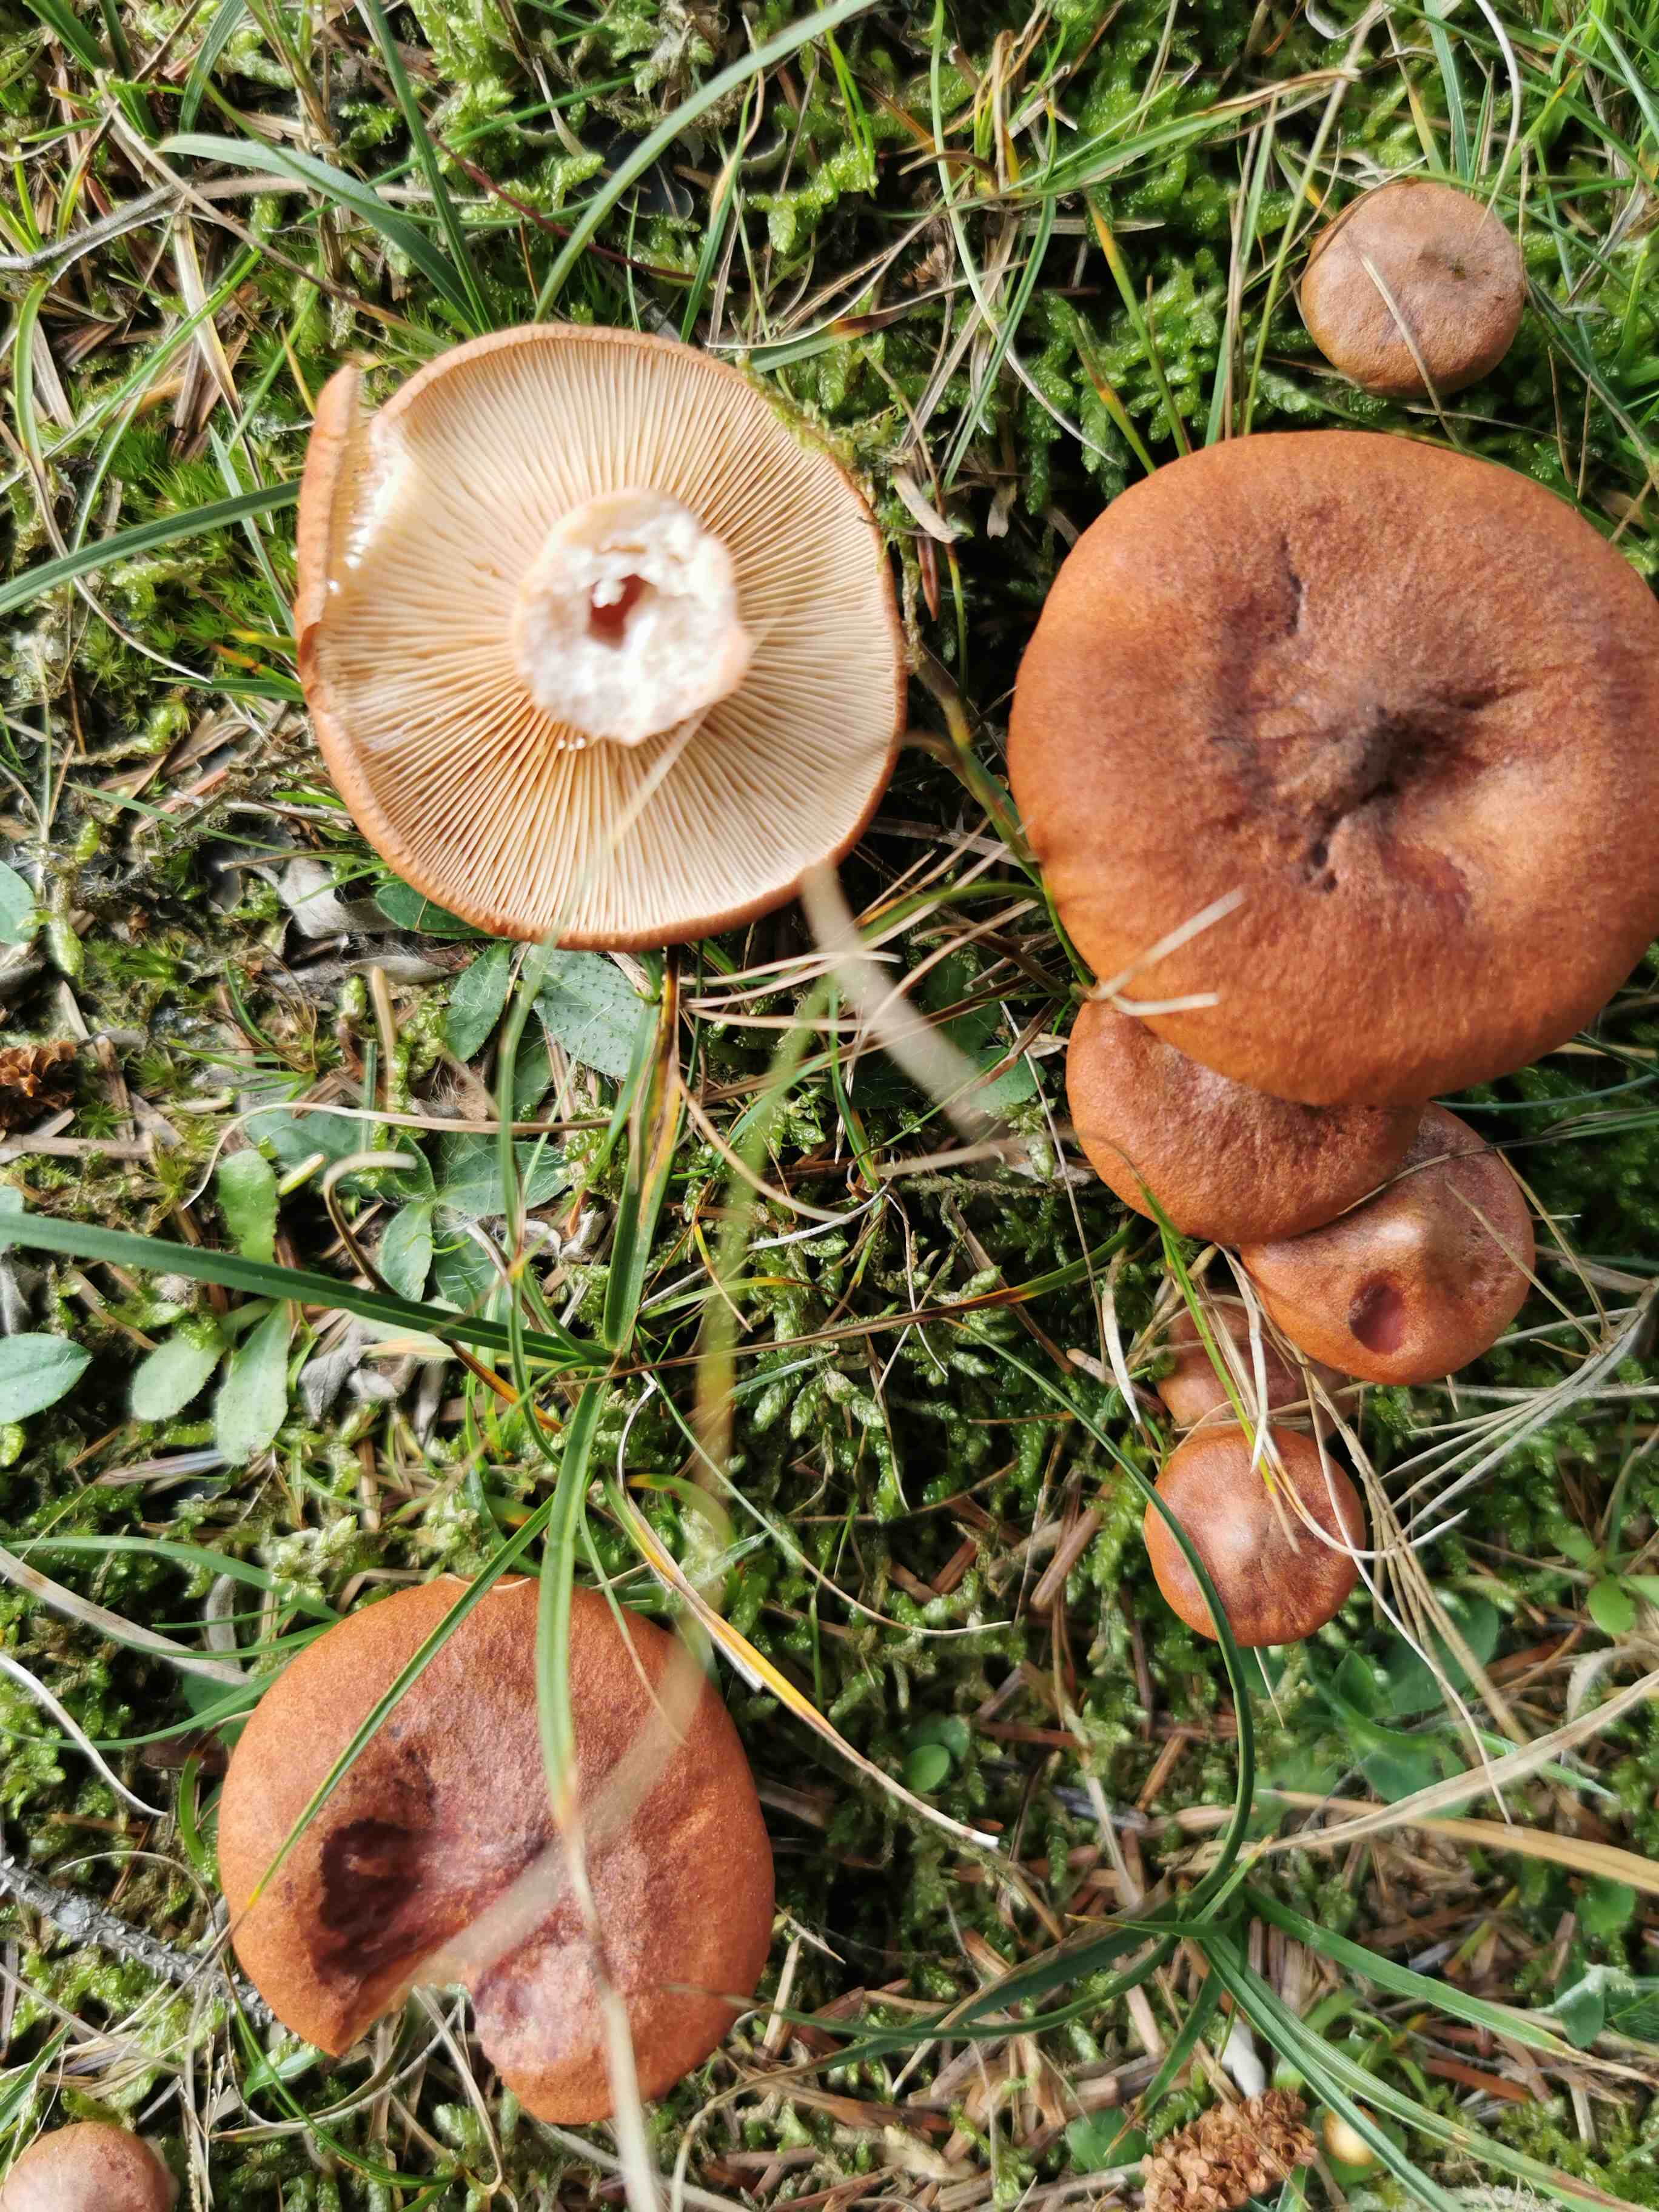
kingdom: Fungi
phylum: Basidiomycota
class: Agaricomycetes
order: Russulales
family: Russulaceae
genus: Lactarius
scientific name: Lactarius rufus
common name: rødbrun mælkehat
